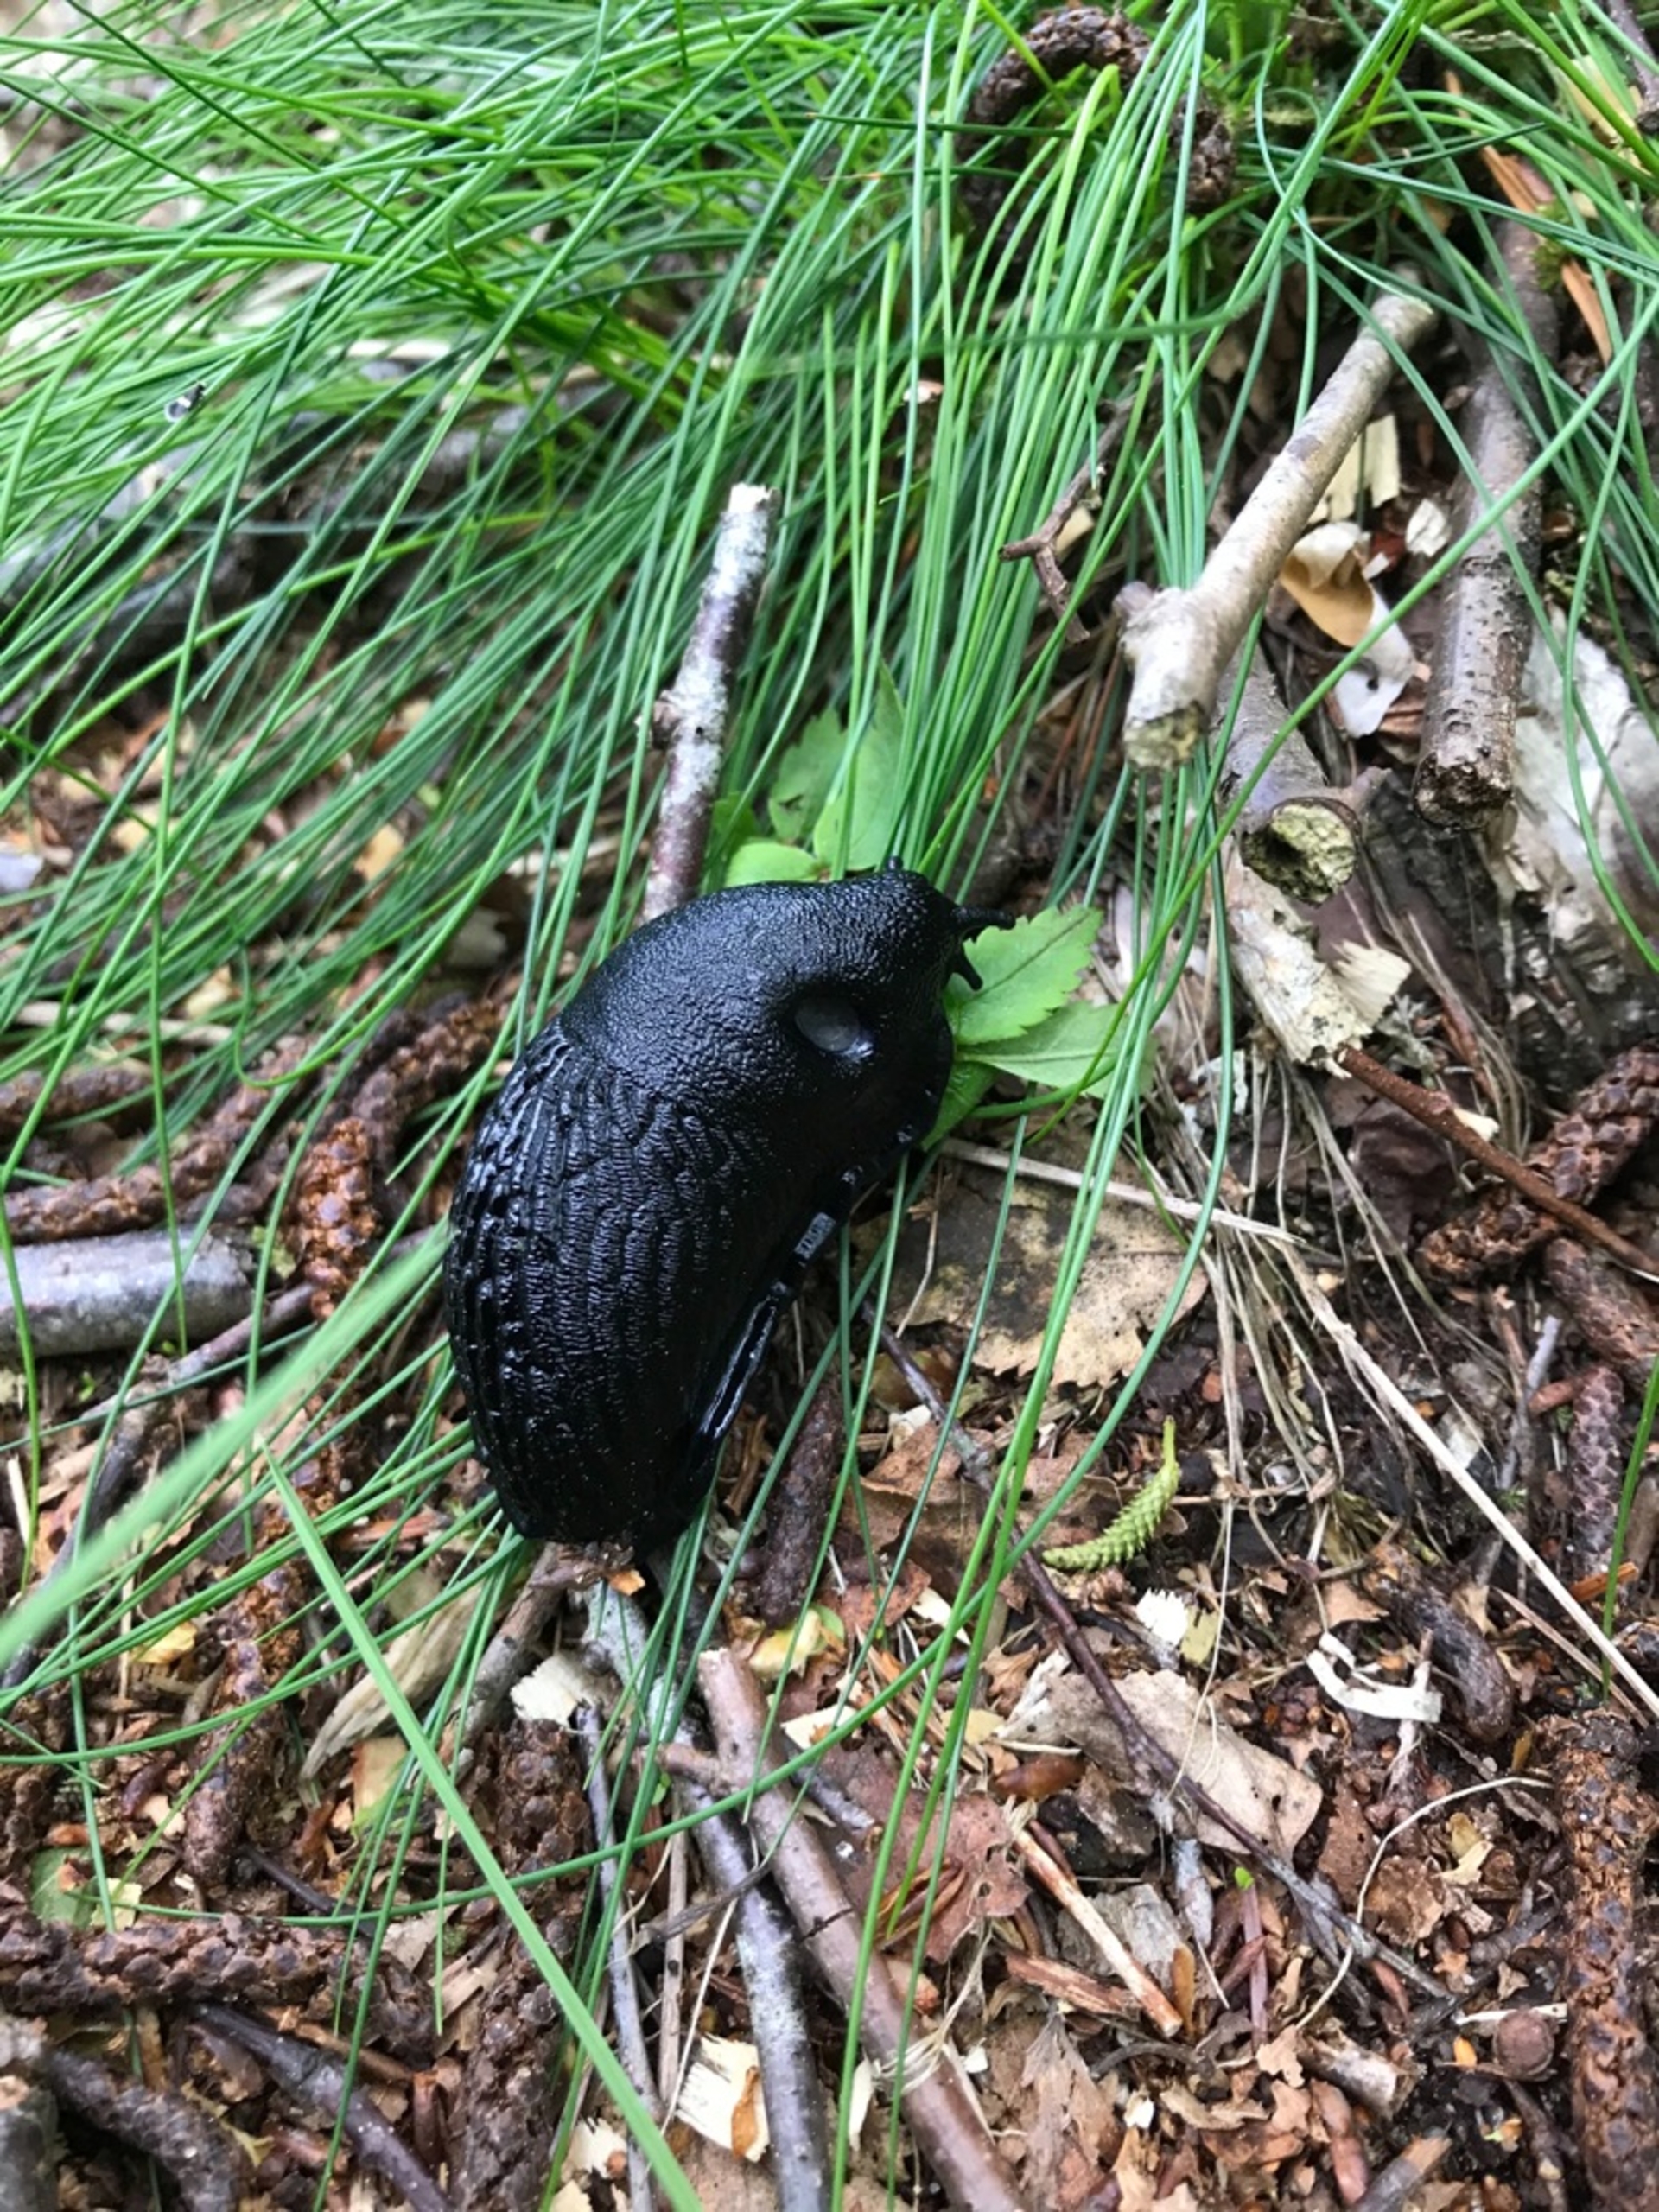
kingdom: Animalia
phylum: Mollusca
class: Gastropoda
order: Stylommatophora
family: Arionidae
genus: Arion
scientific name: Arion ater
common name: Sort skovsnegl
